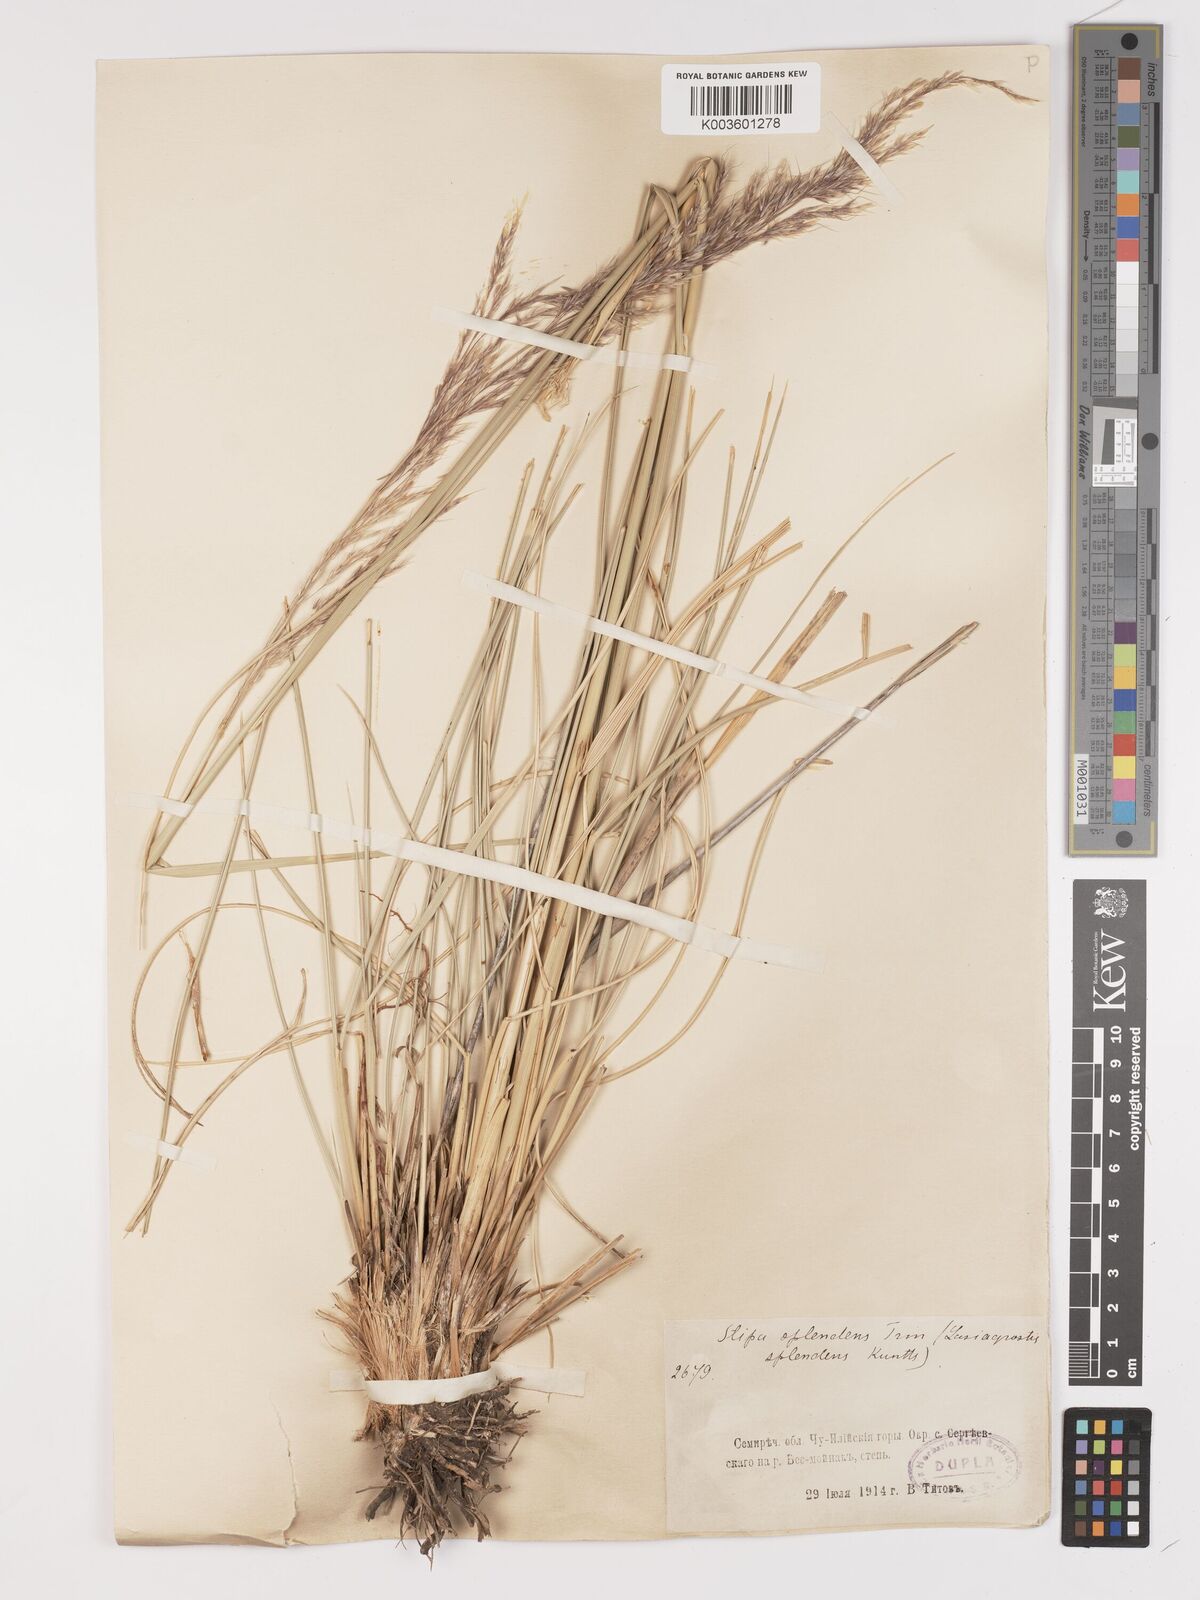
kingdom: Plantae
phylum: Tracheophyta
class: Liliopsida
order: Poales
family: Poaceae
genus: Neotrinia
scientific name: Neotrinia splendens
